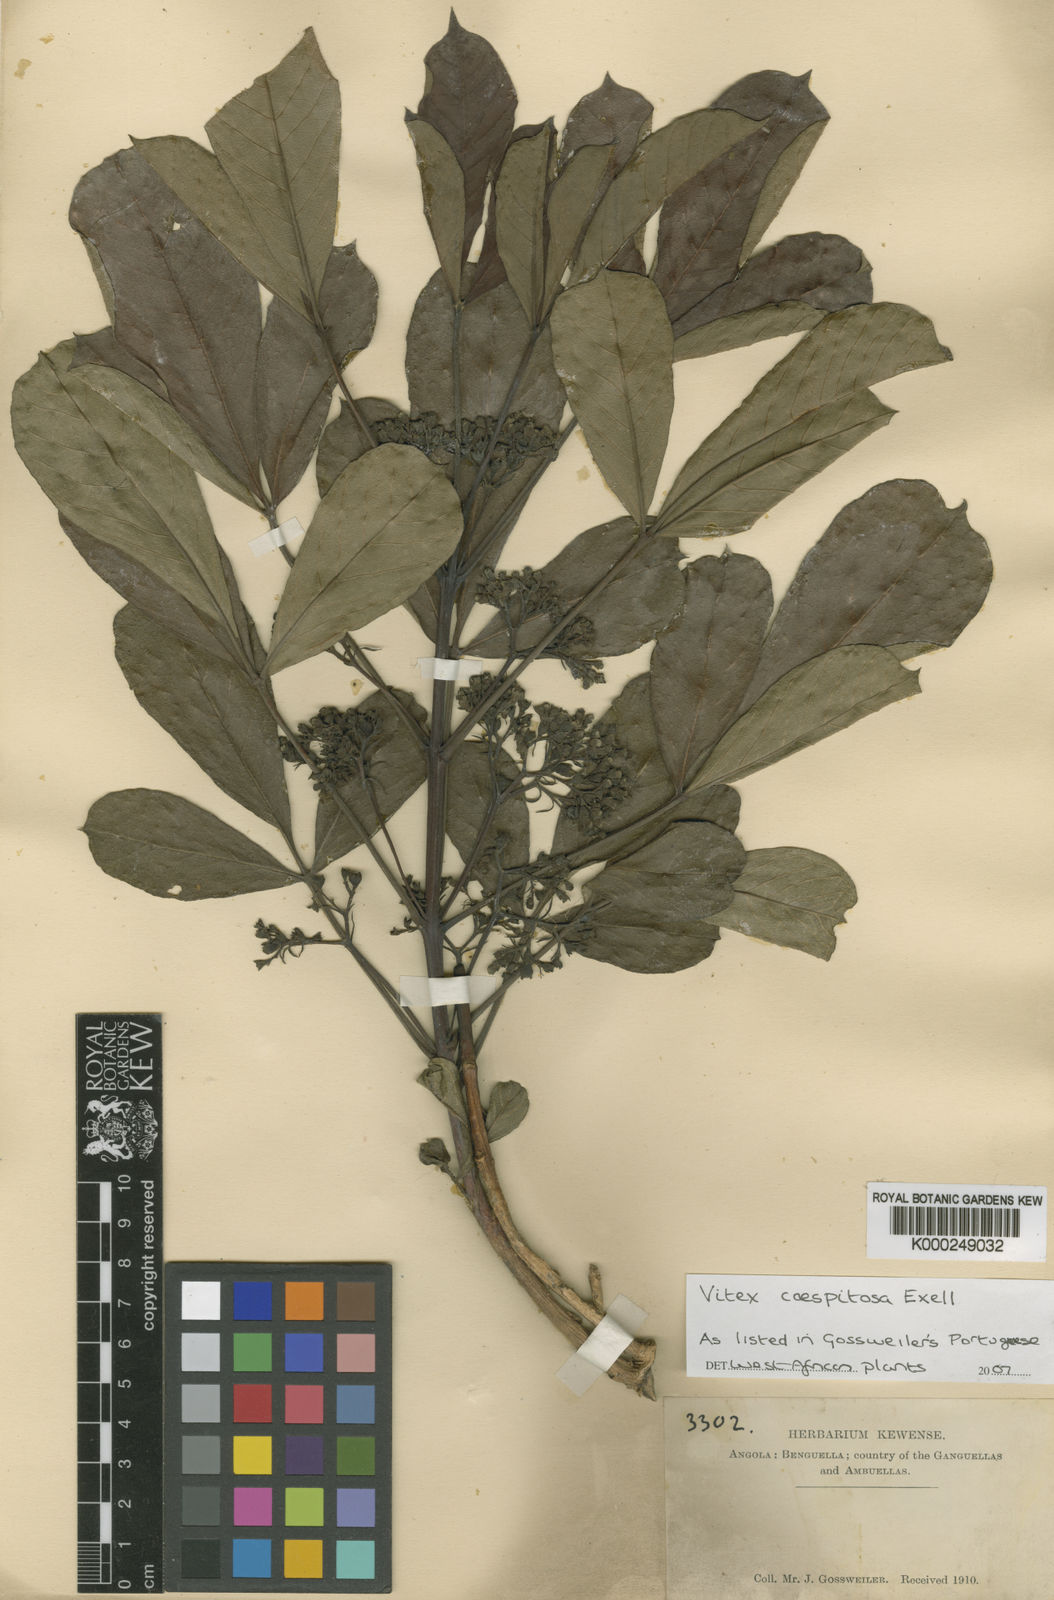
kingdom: Plantae
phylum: Tracheophyta
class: Magnoliopsida
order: Lamiales
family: Lamiaceae
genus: Vitex
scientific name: Vitex caespitosa
